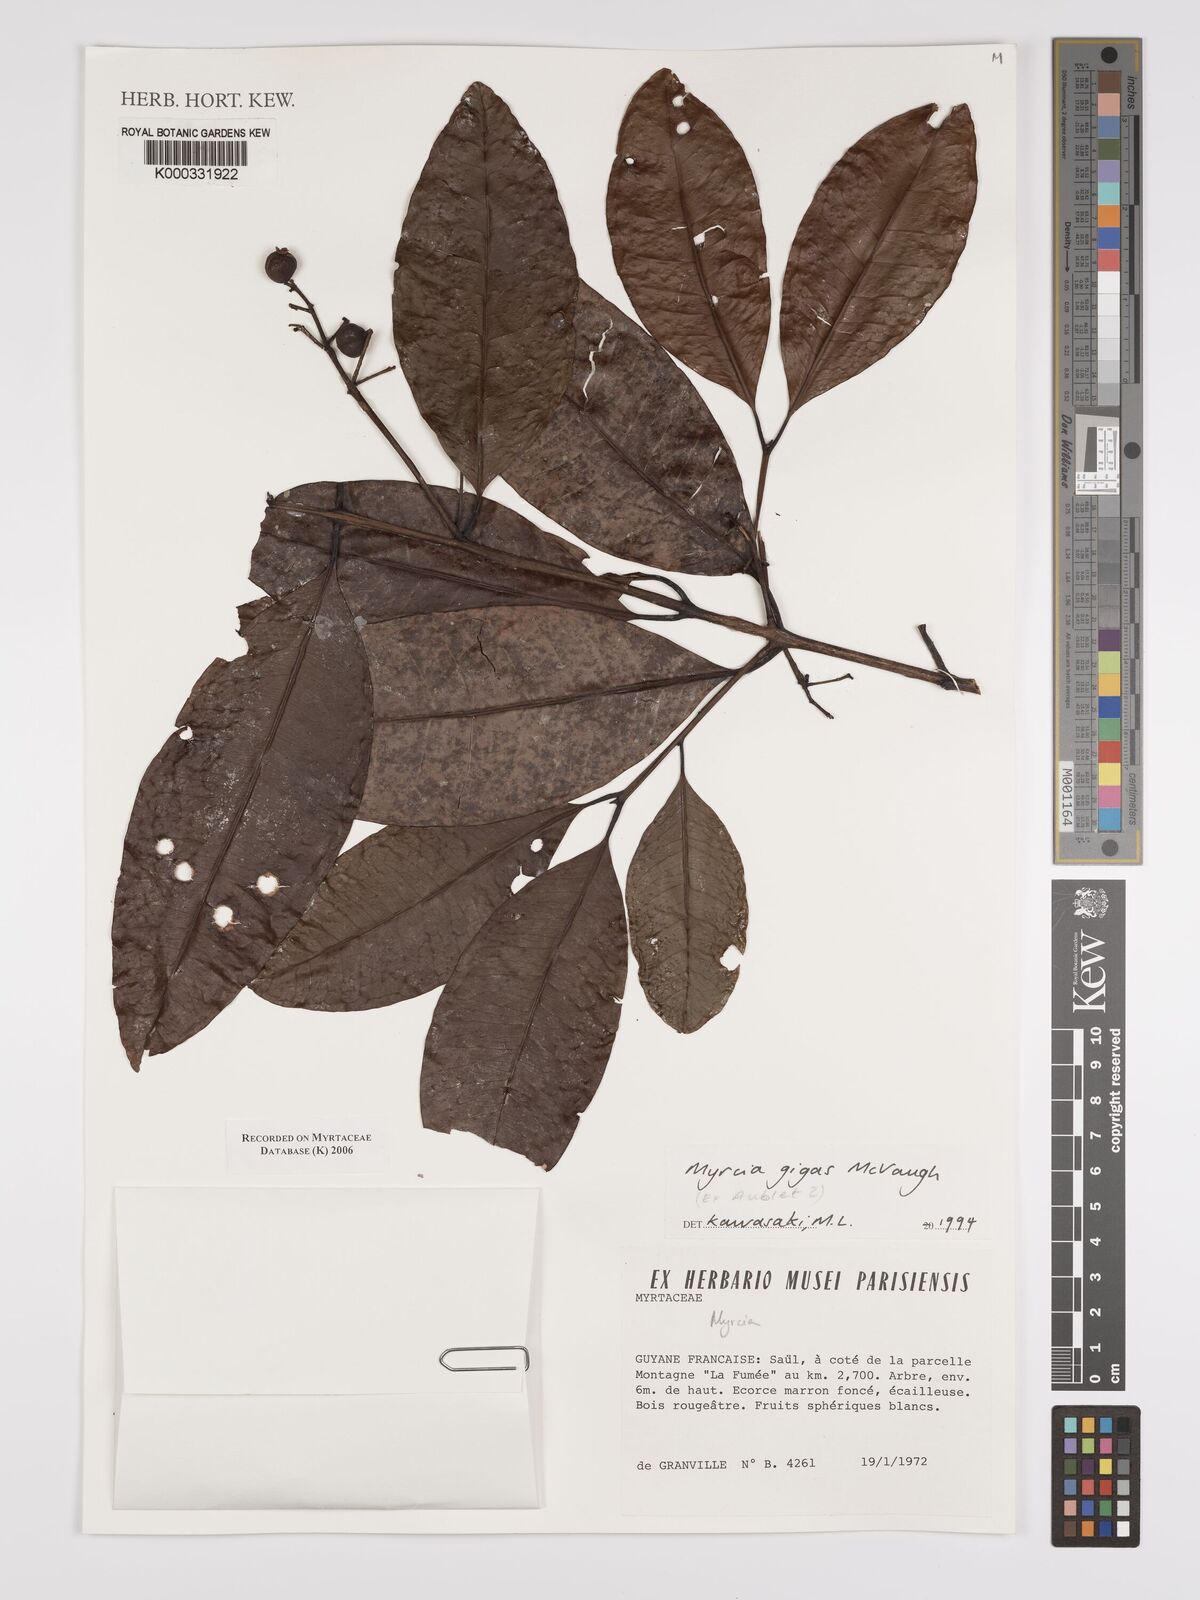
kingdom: Plantae
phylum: Tracheophyta
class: Magnoliopsida
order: Myrtales
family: Myrtaceae
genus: Myrcia
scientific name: Myrcia gigas
